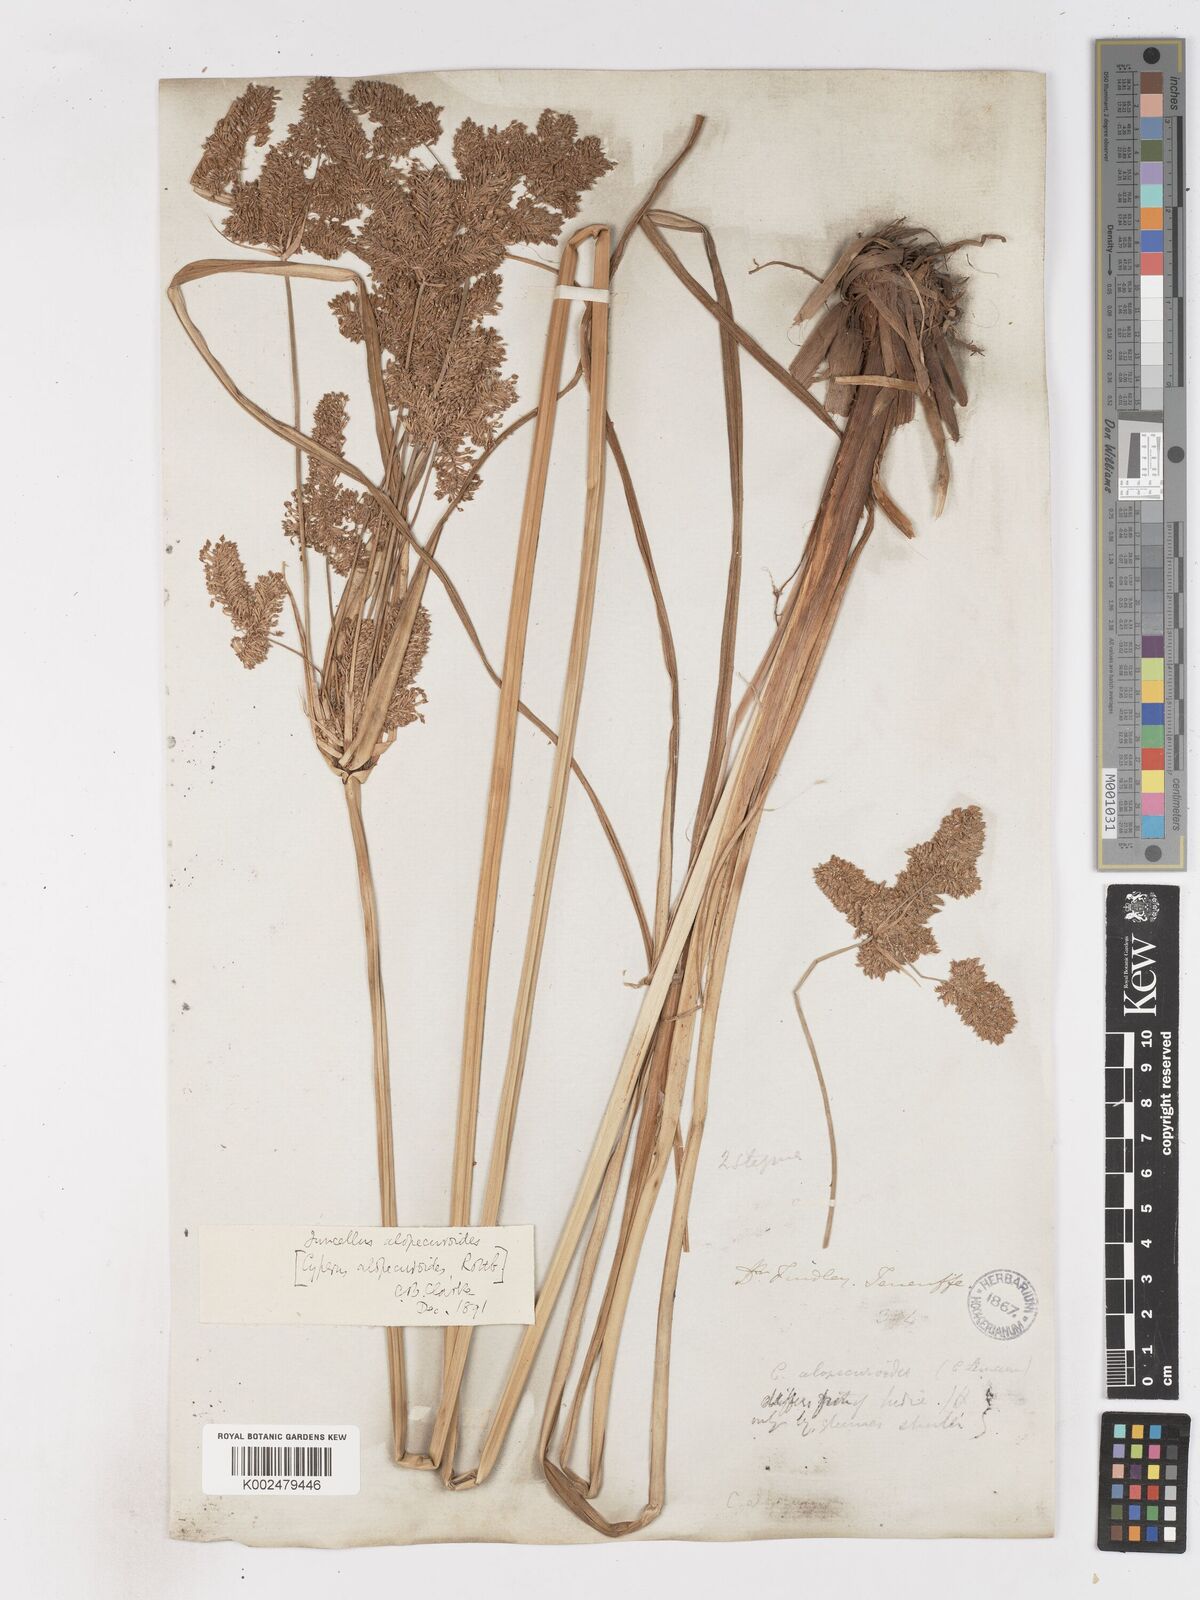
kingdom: Plantae
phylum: Tracheophyta
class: Liliopsida
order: Poales
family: Cyperaceae
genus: Cyperus
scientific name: Cyperus alopecuroides
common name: Foxtail flatsedge
